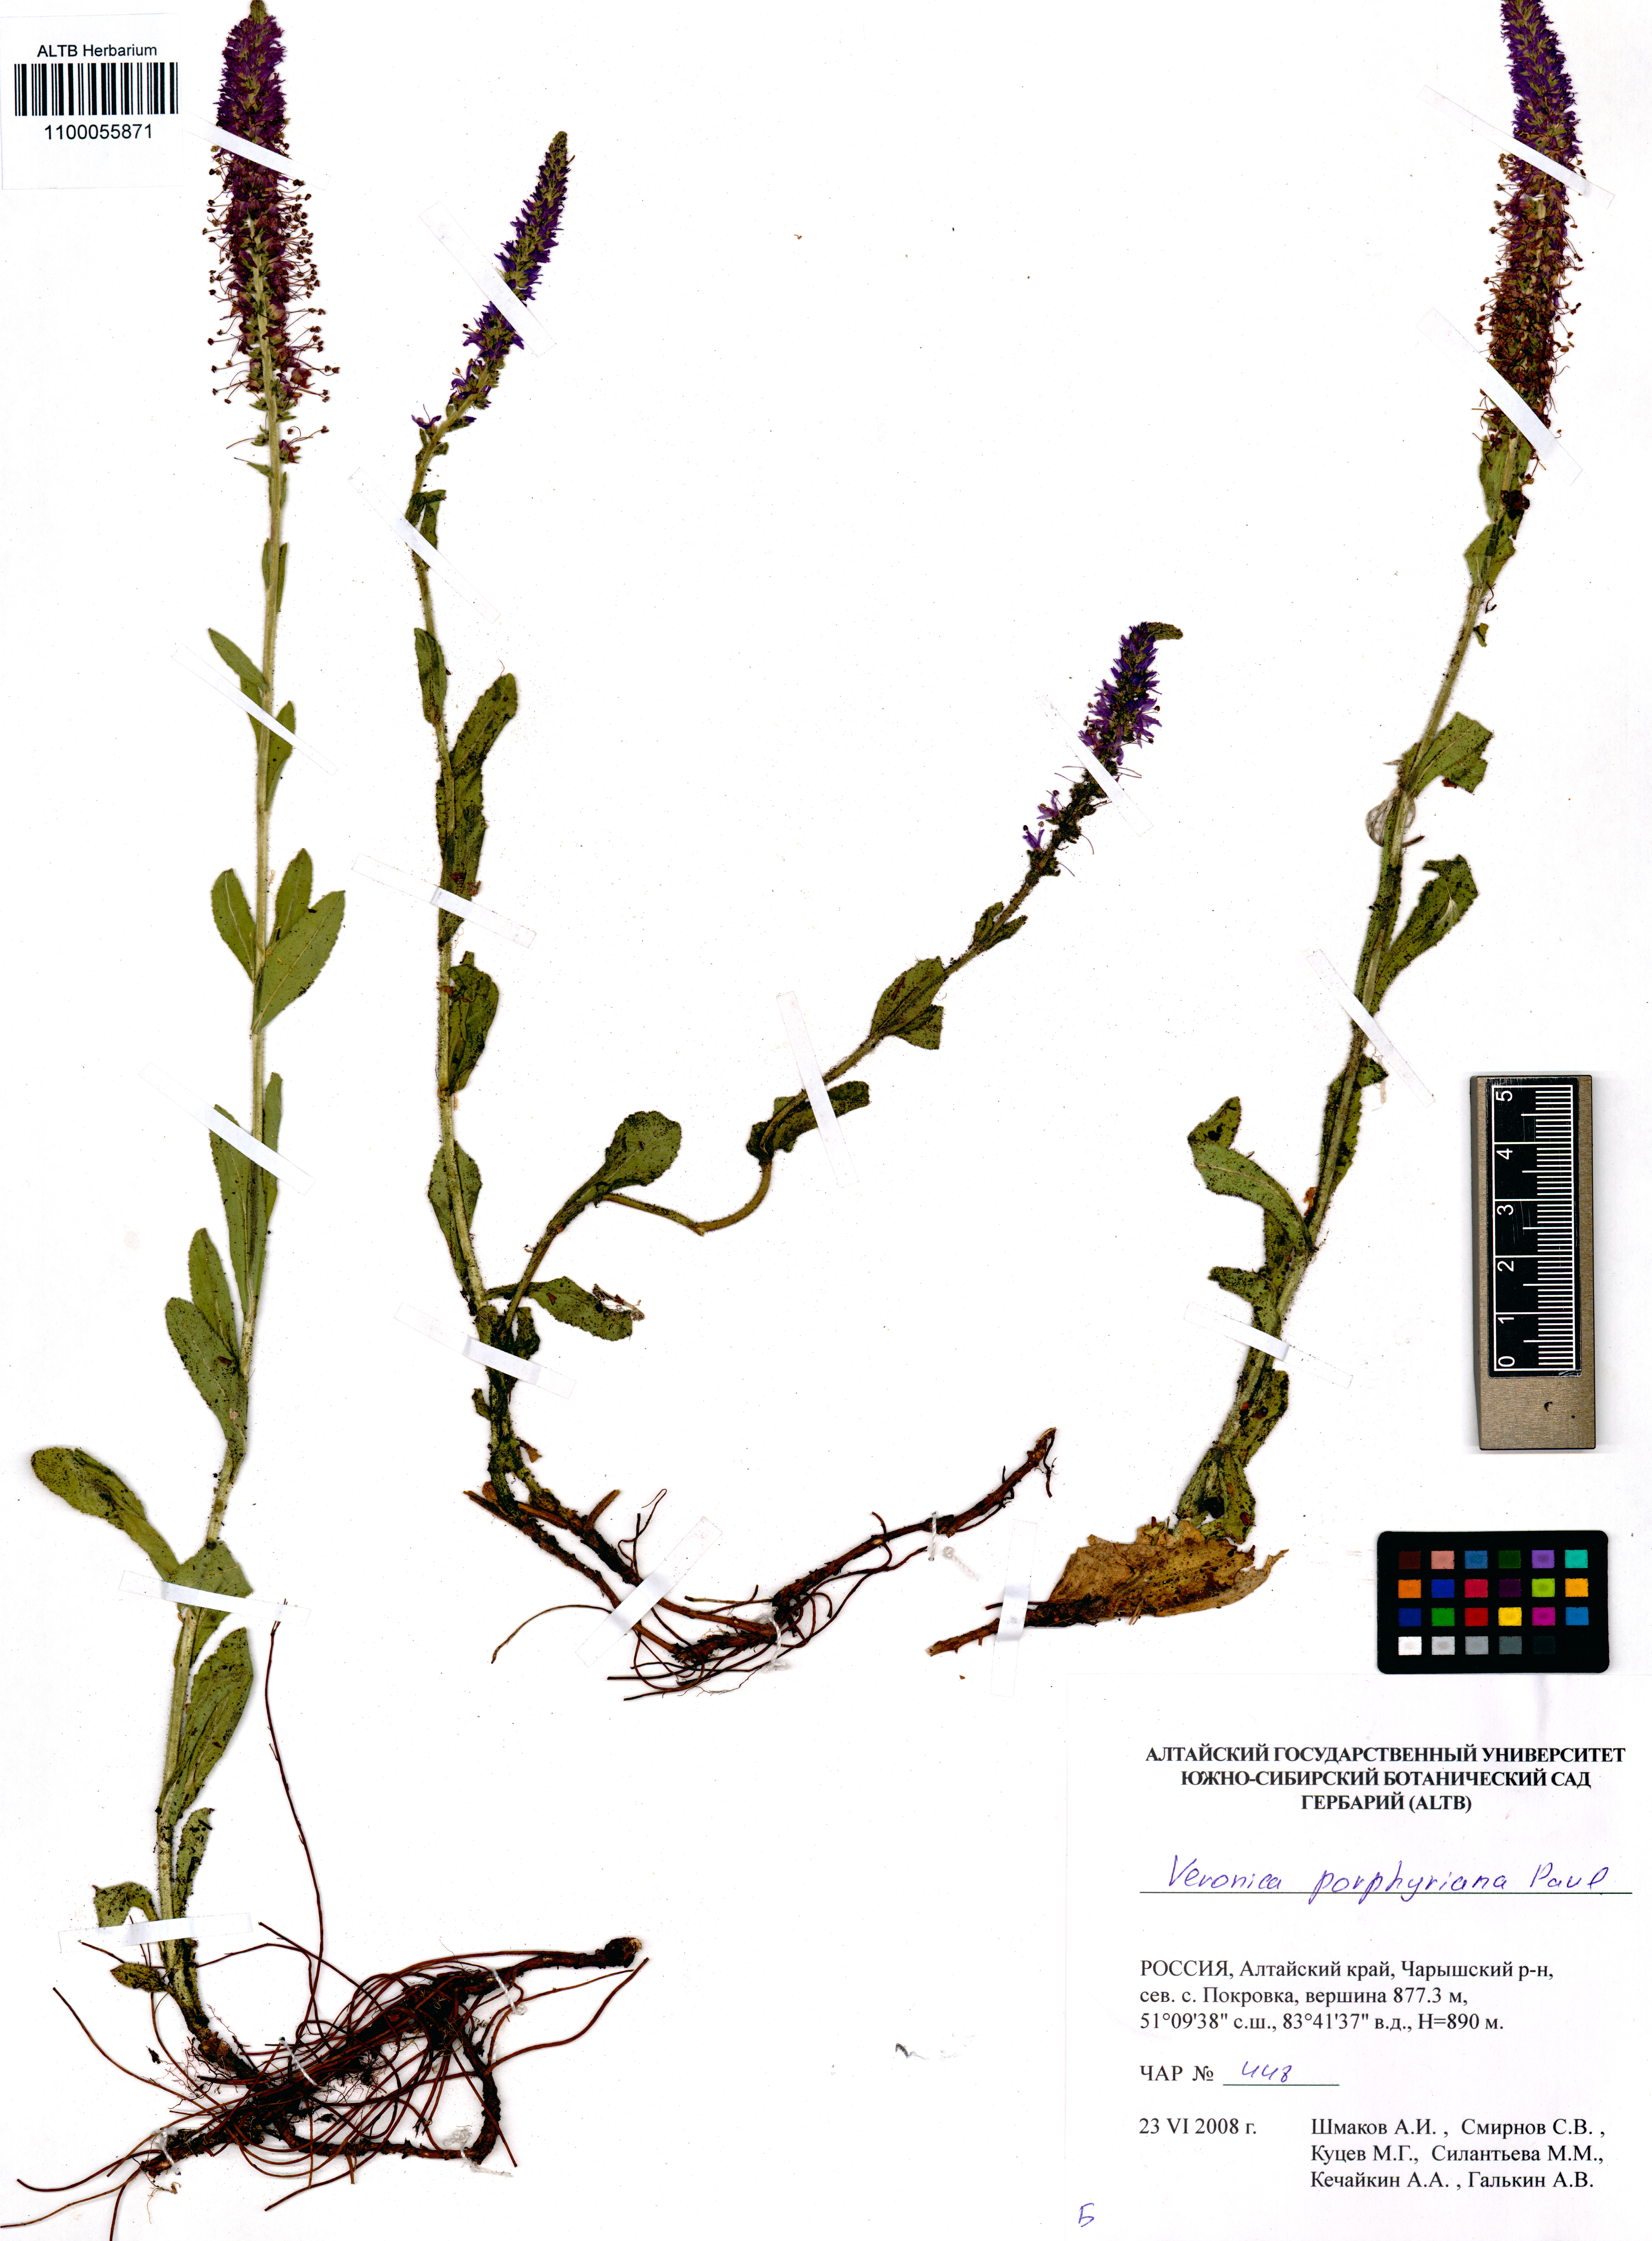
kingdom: Plantae
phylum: Tracheophyta
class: Magnoliopsida
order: Lamiales
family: Plantaginaceae
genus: Veronica
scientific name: Veronica porphyriana
